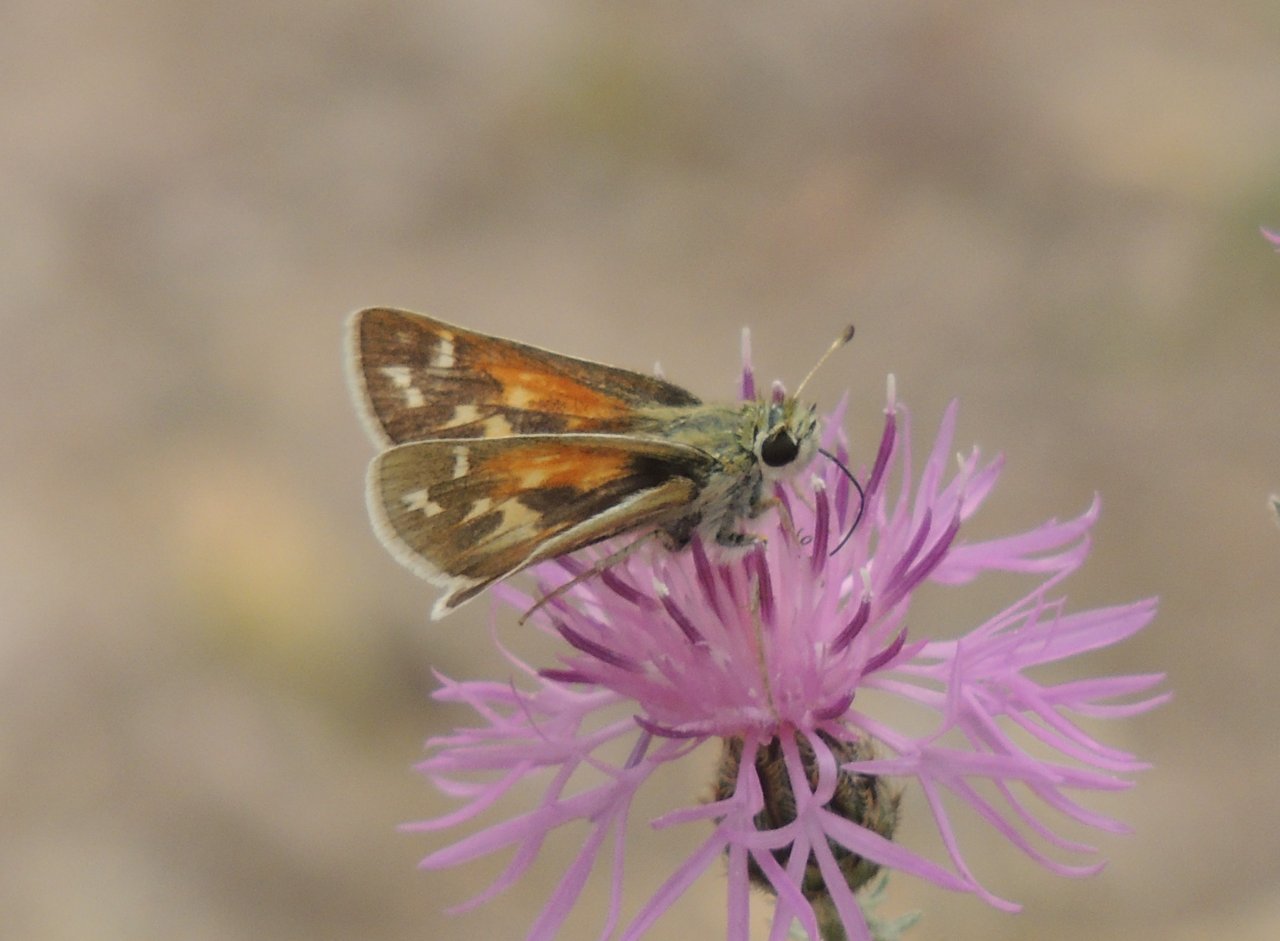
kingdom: Animalia
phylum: Arthropoda
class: Insecta
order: Lepidoptera
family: Hesperiidae
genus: Hesperia
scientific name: Hesperia comma
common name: Western Branded Skipper
